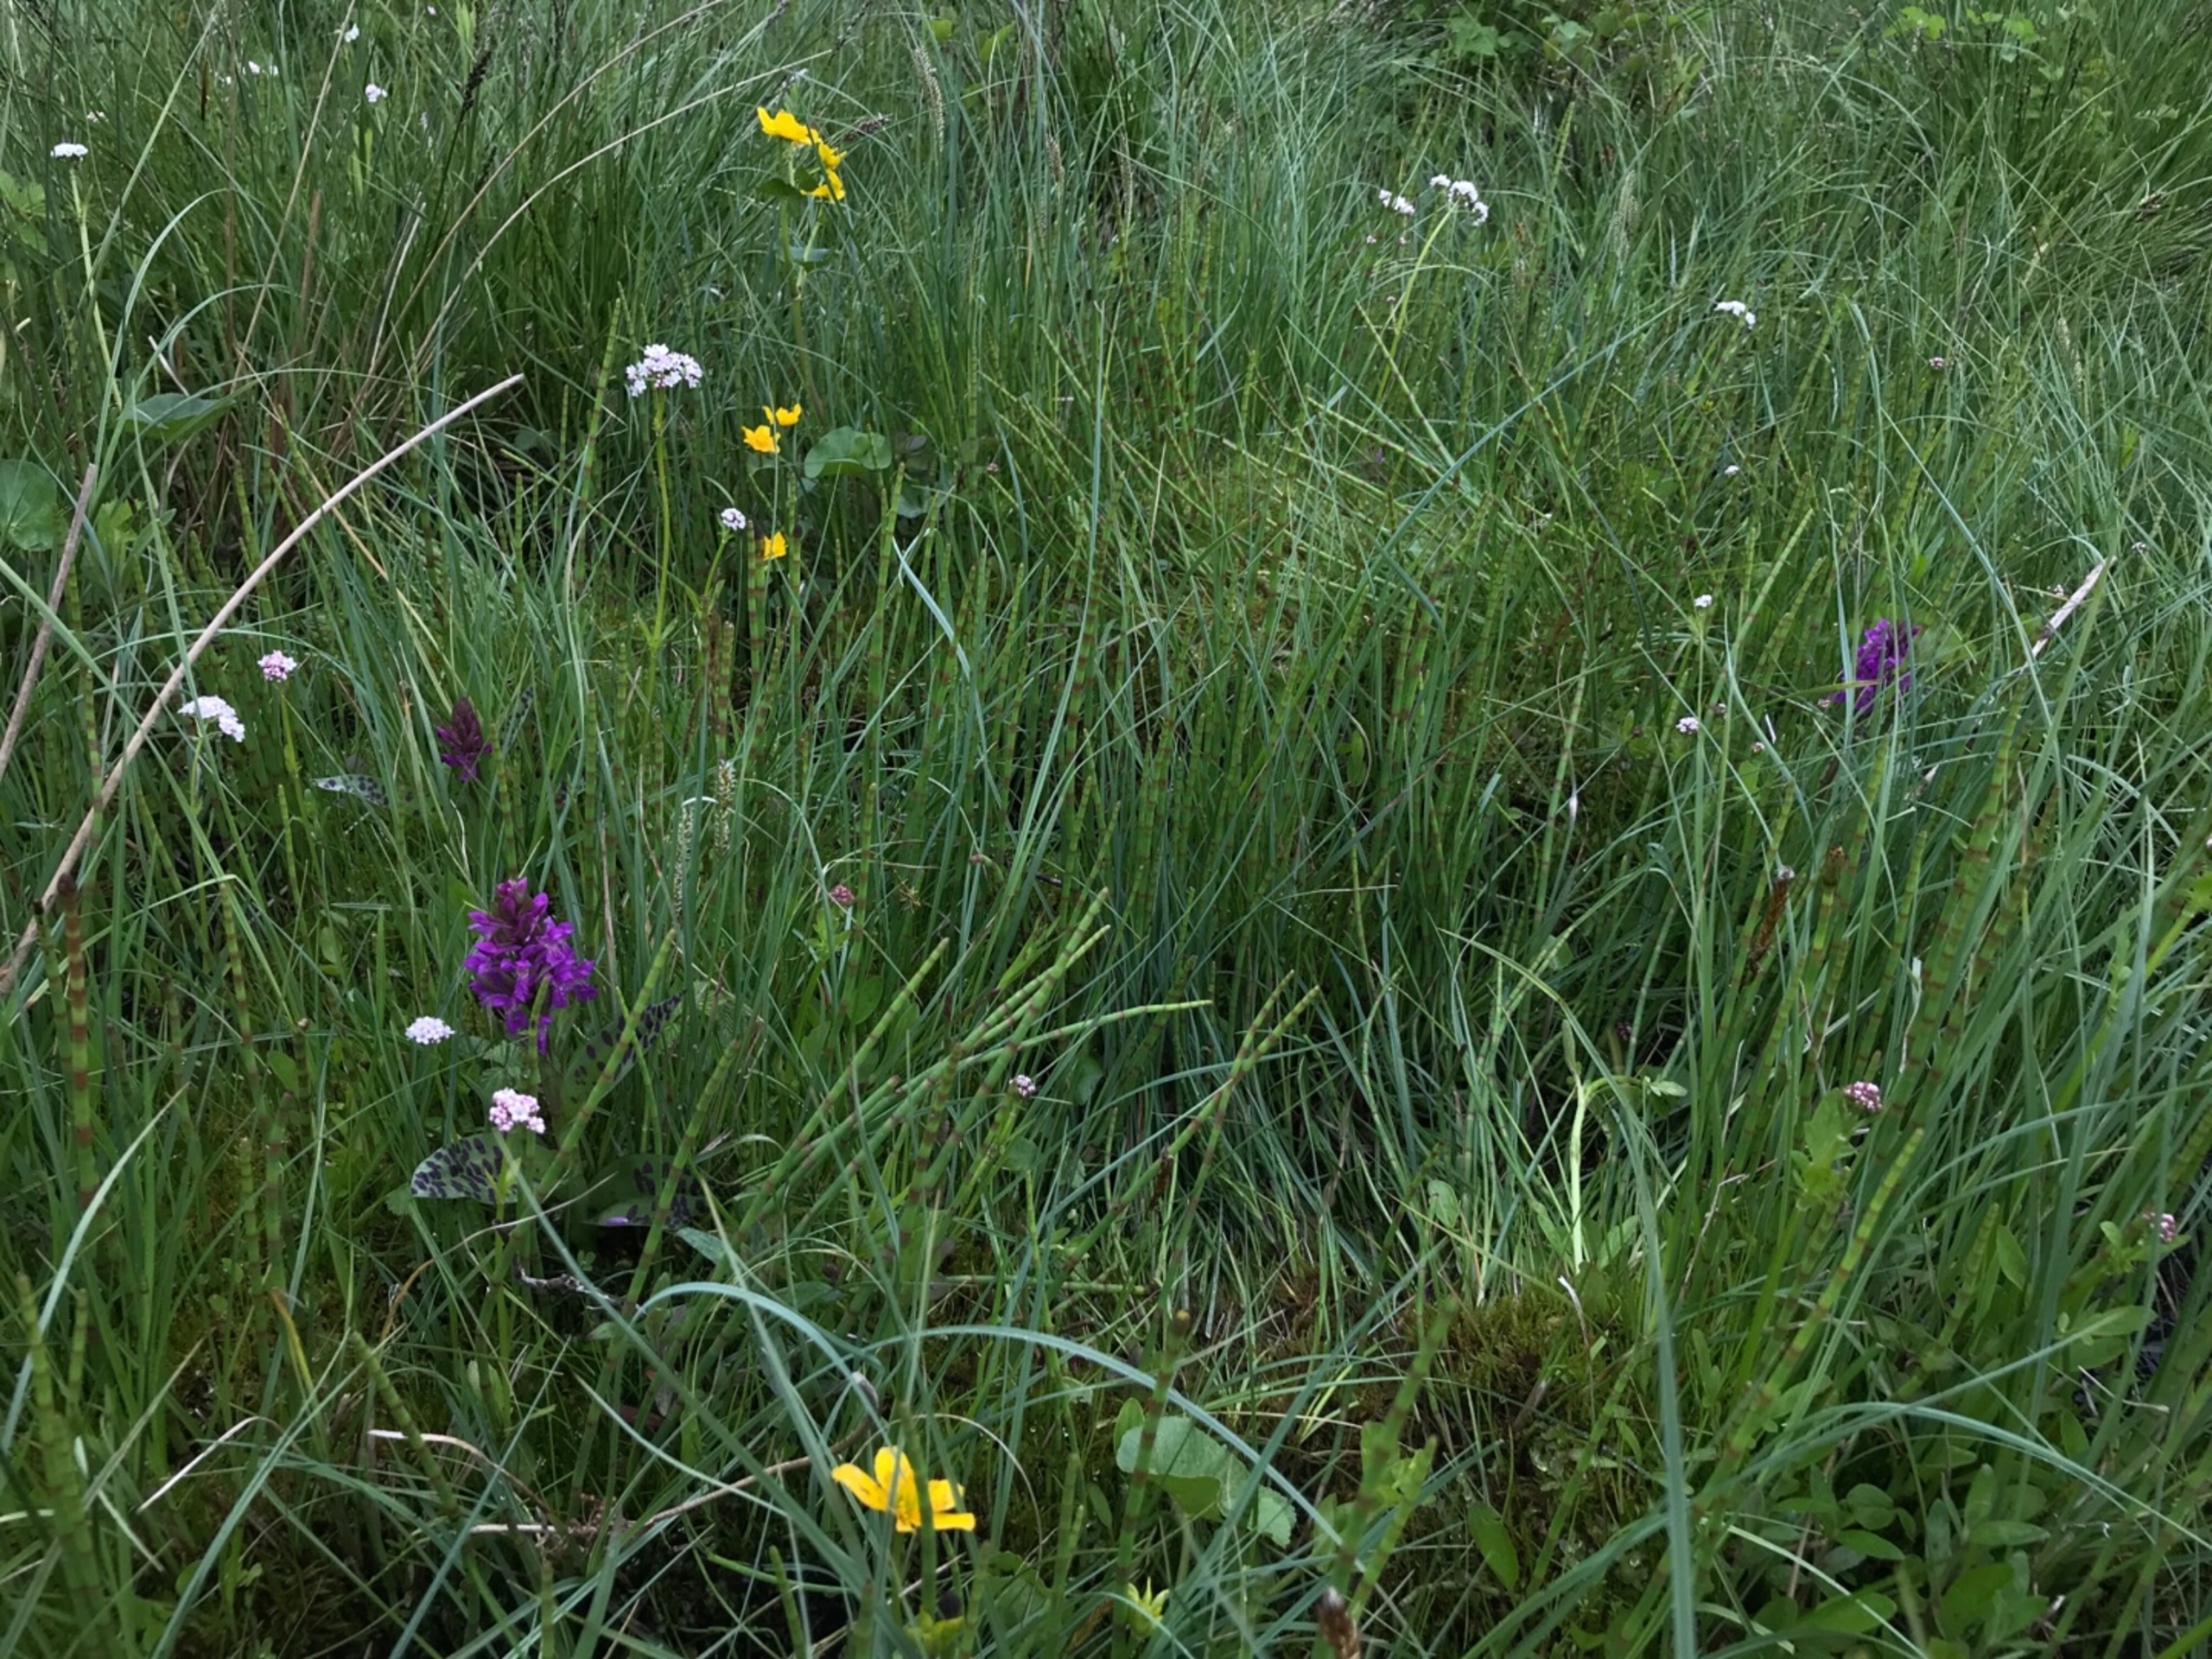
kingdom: Plantae
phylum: Tracheophyta
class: Liliopsida
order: Asparagales
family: Orchidaceae
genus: Dactylorhiza
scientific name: Dactylorhiza majalis
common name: Maj-gøgeurt
